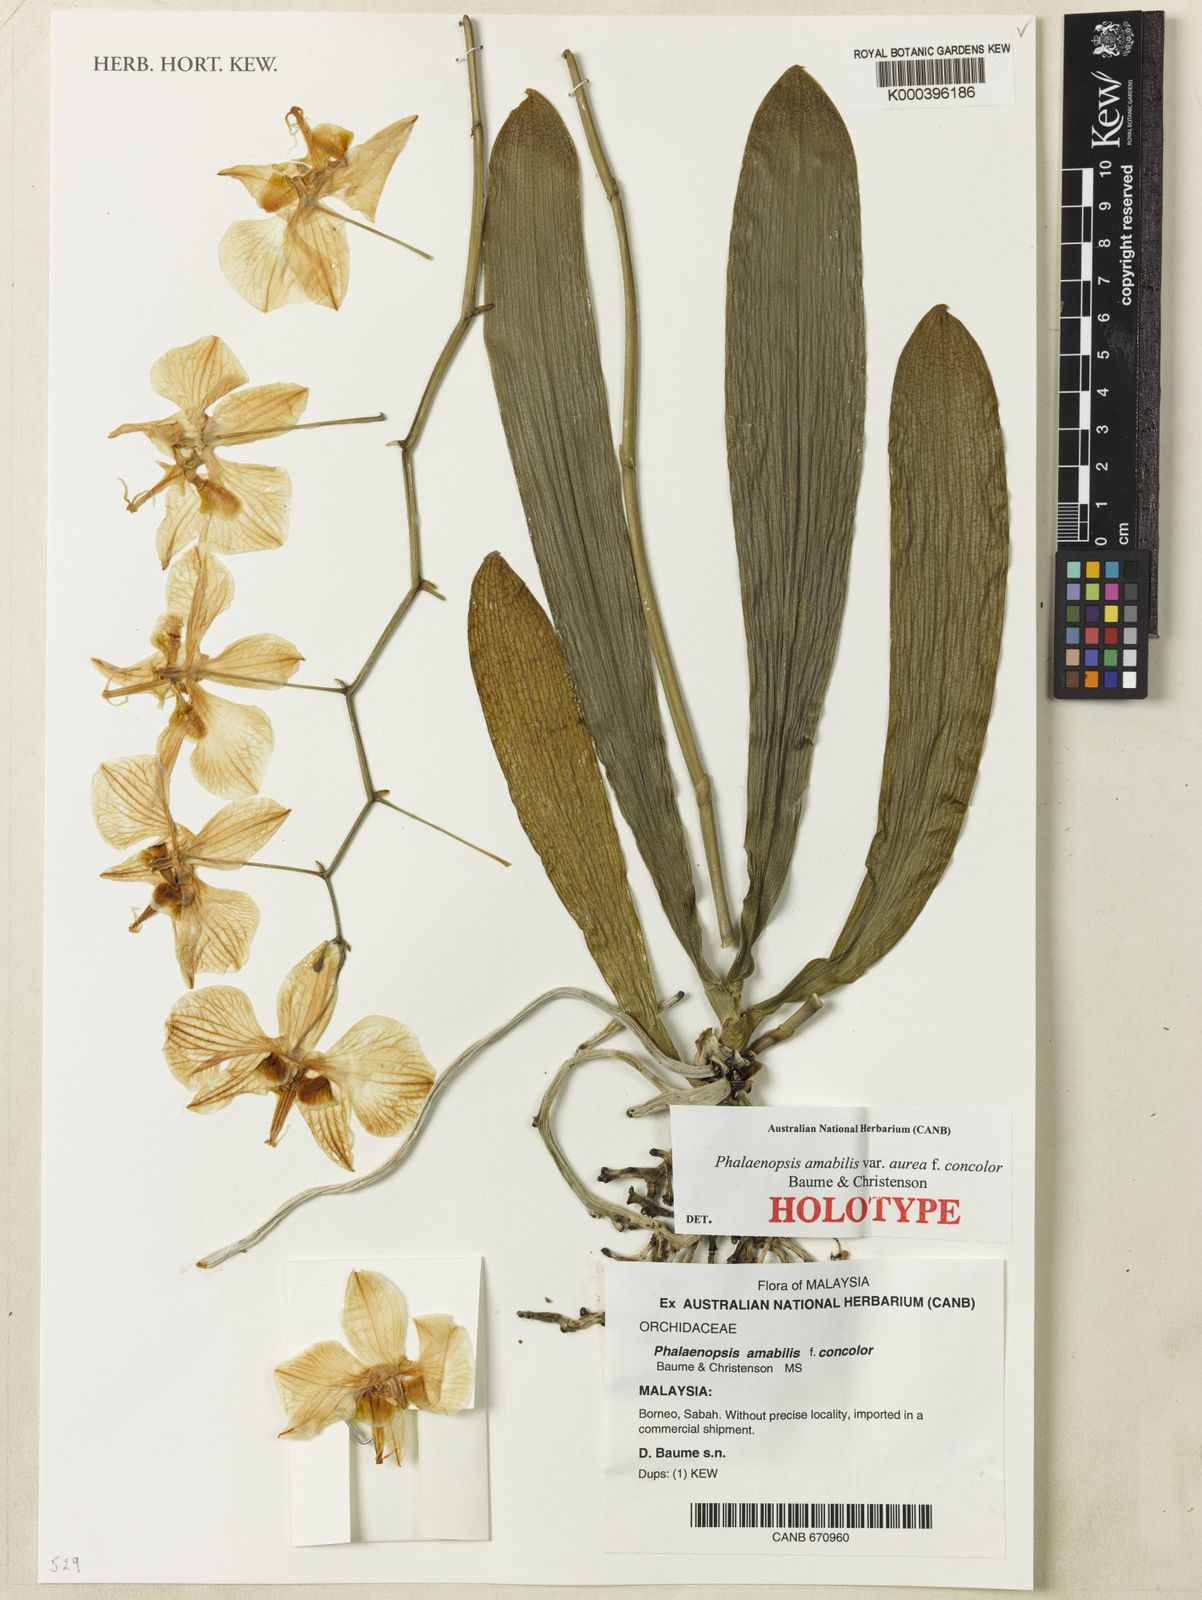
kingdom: Plantae
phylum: Tracheophyta
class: Liliopsida
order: Asparagales
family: Orchidaceae
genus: Phalaenopsis
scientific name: Phalaenopsis amabilis
